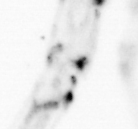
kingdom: Animalia
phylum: Arthropoda
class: Copepoda
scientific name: Copepoda
